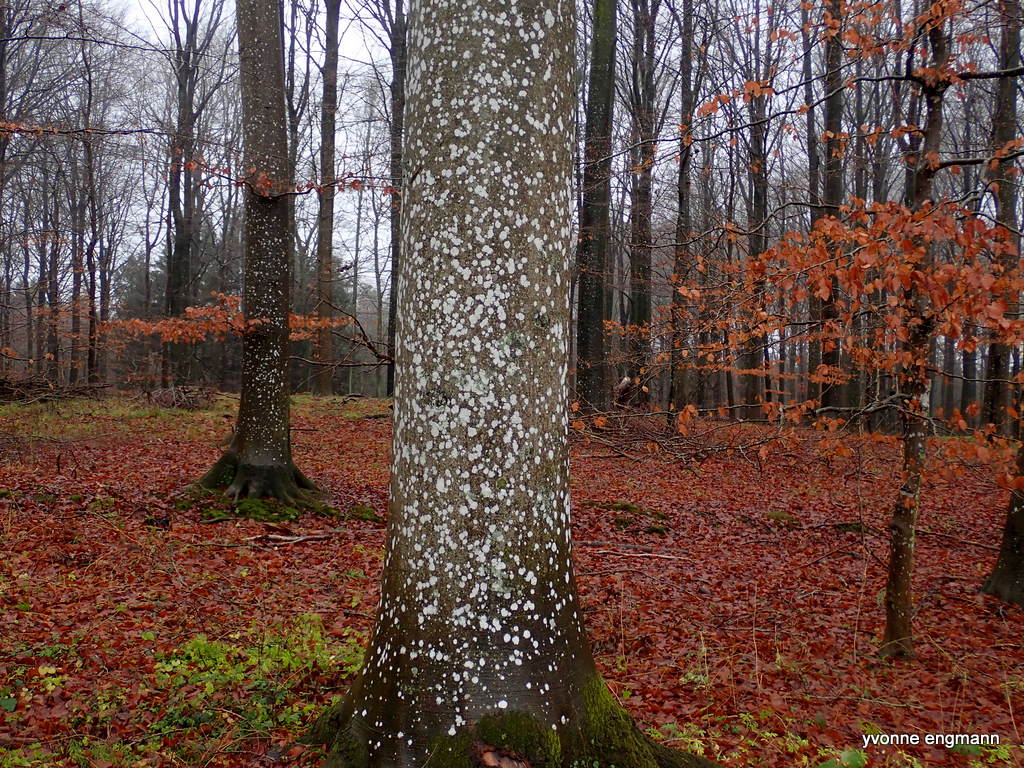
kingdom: Fungi
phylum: Ascomycota
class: Lecanoromycetes
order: Ostropales
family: Phlyctidaceae
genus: Phlyctis
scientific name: Phlyctis argena
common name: almindelig sølvlav
